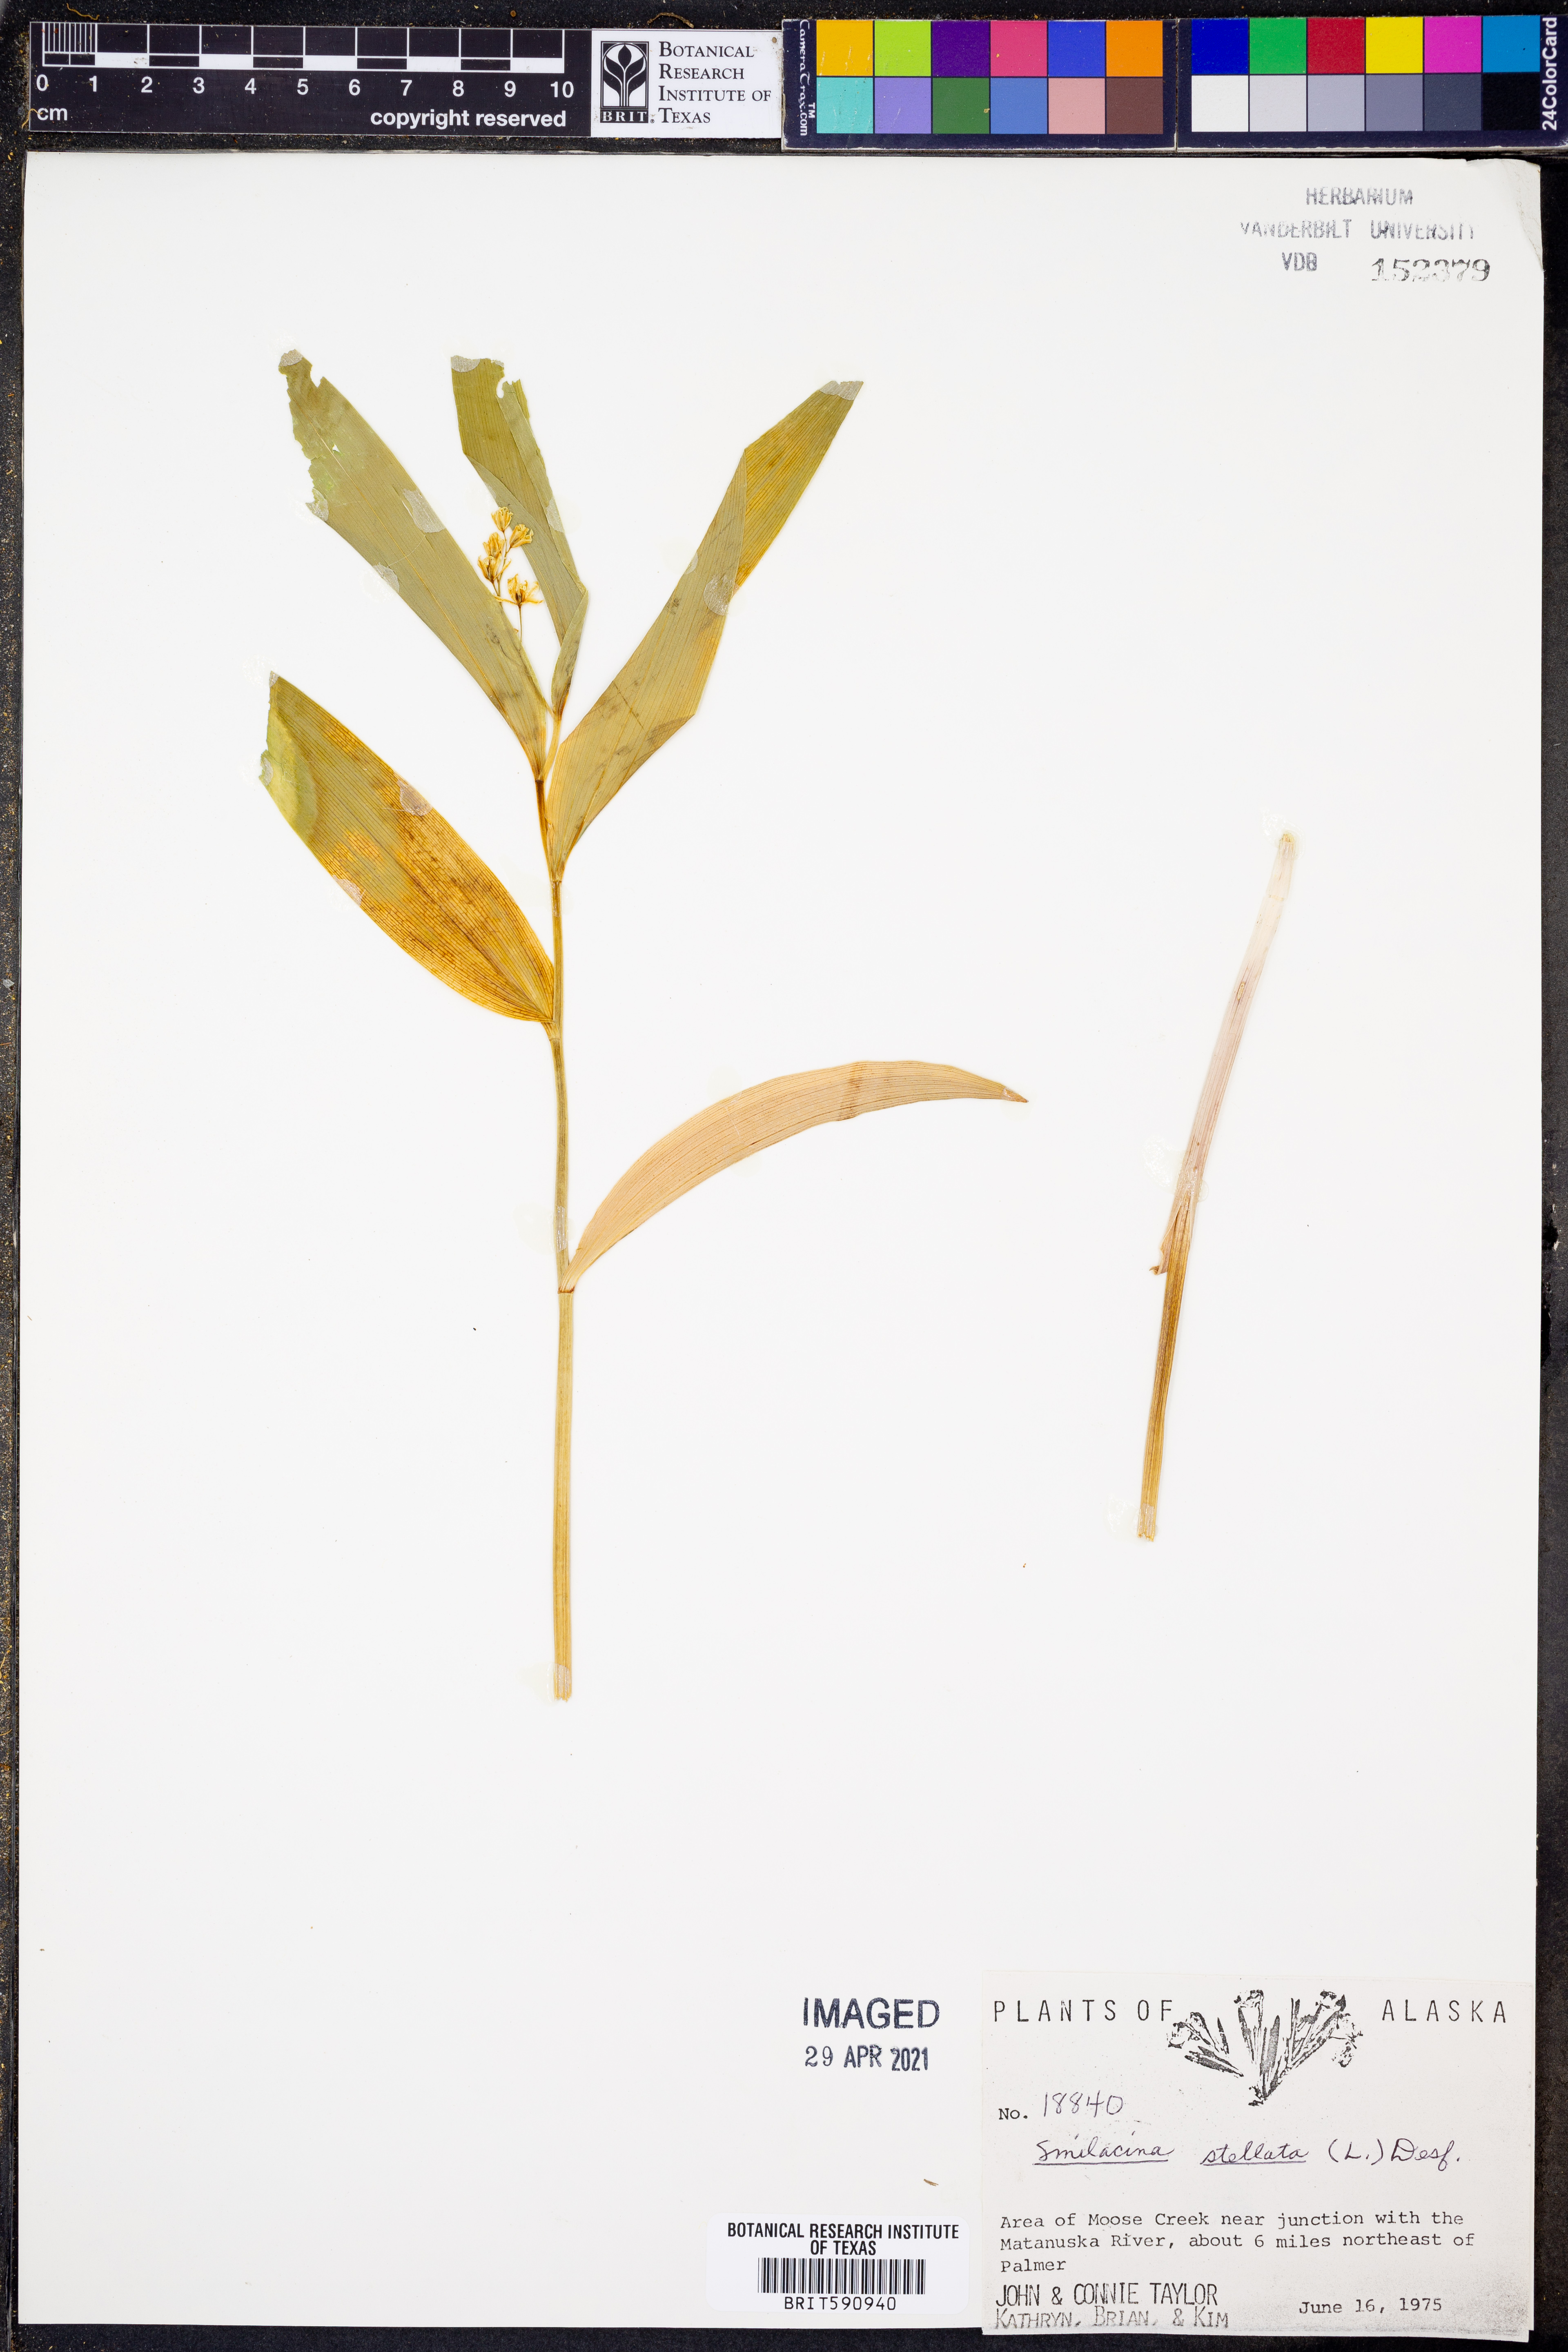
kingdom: Plantae
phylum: Tracheophyta
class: Liliopsida
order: Asparagales
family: Asparagaceae
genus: Maianthemum
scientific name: Maianthemum stellatum
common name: Little false solomon's seal
